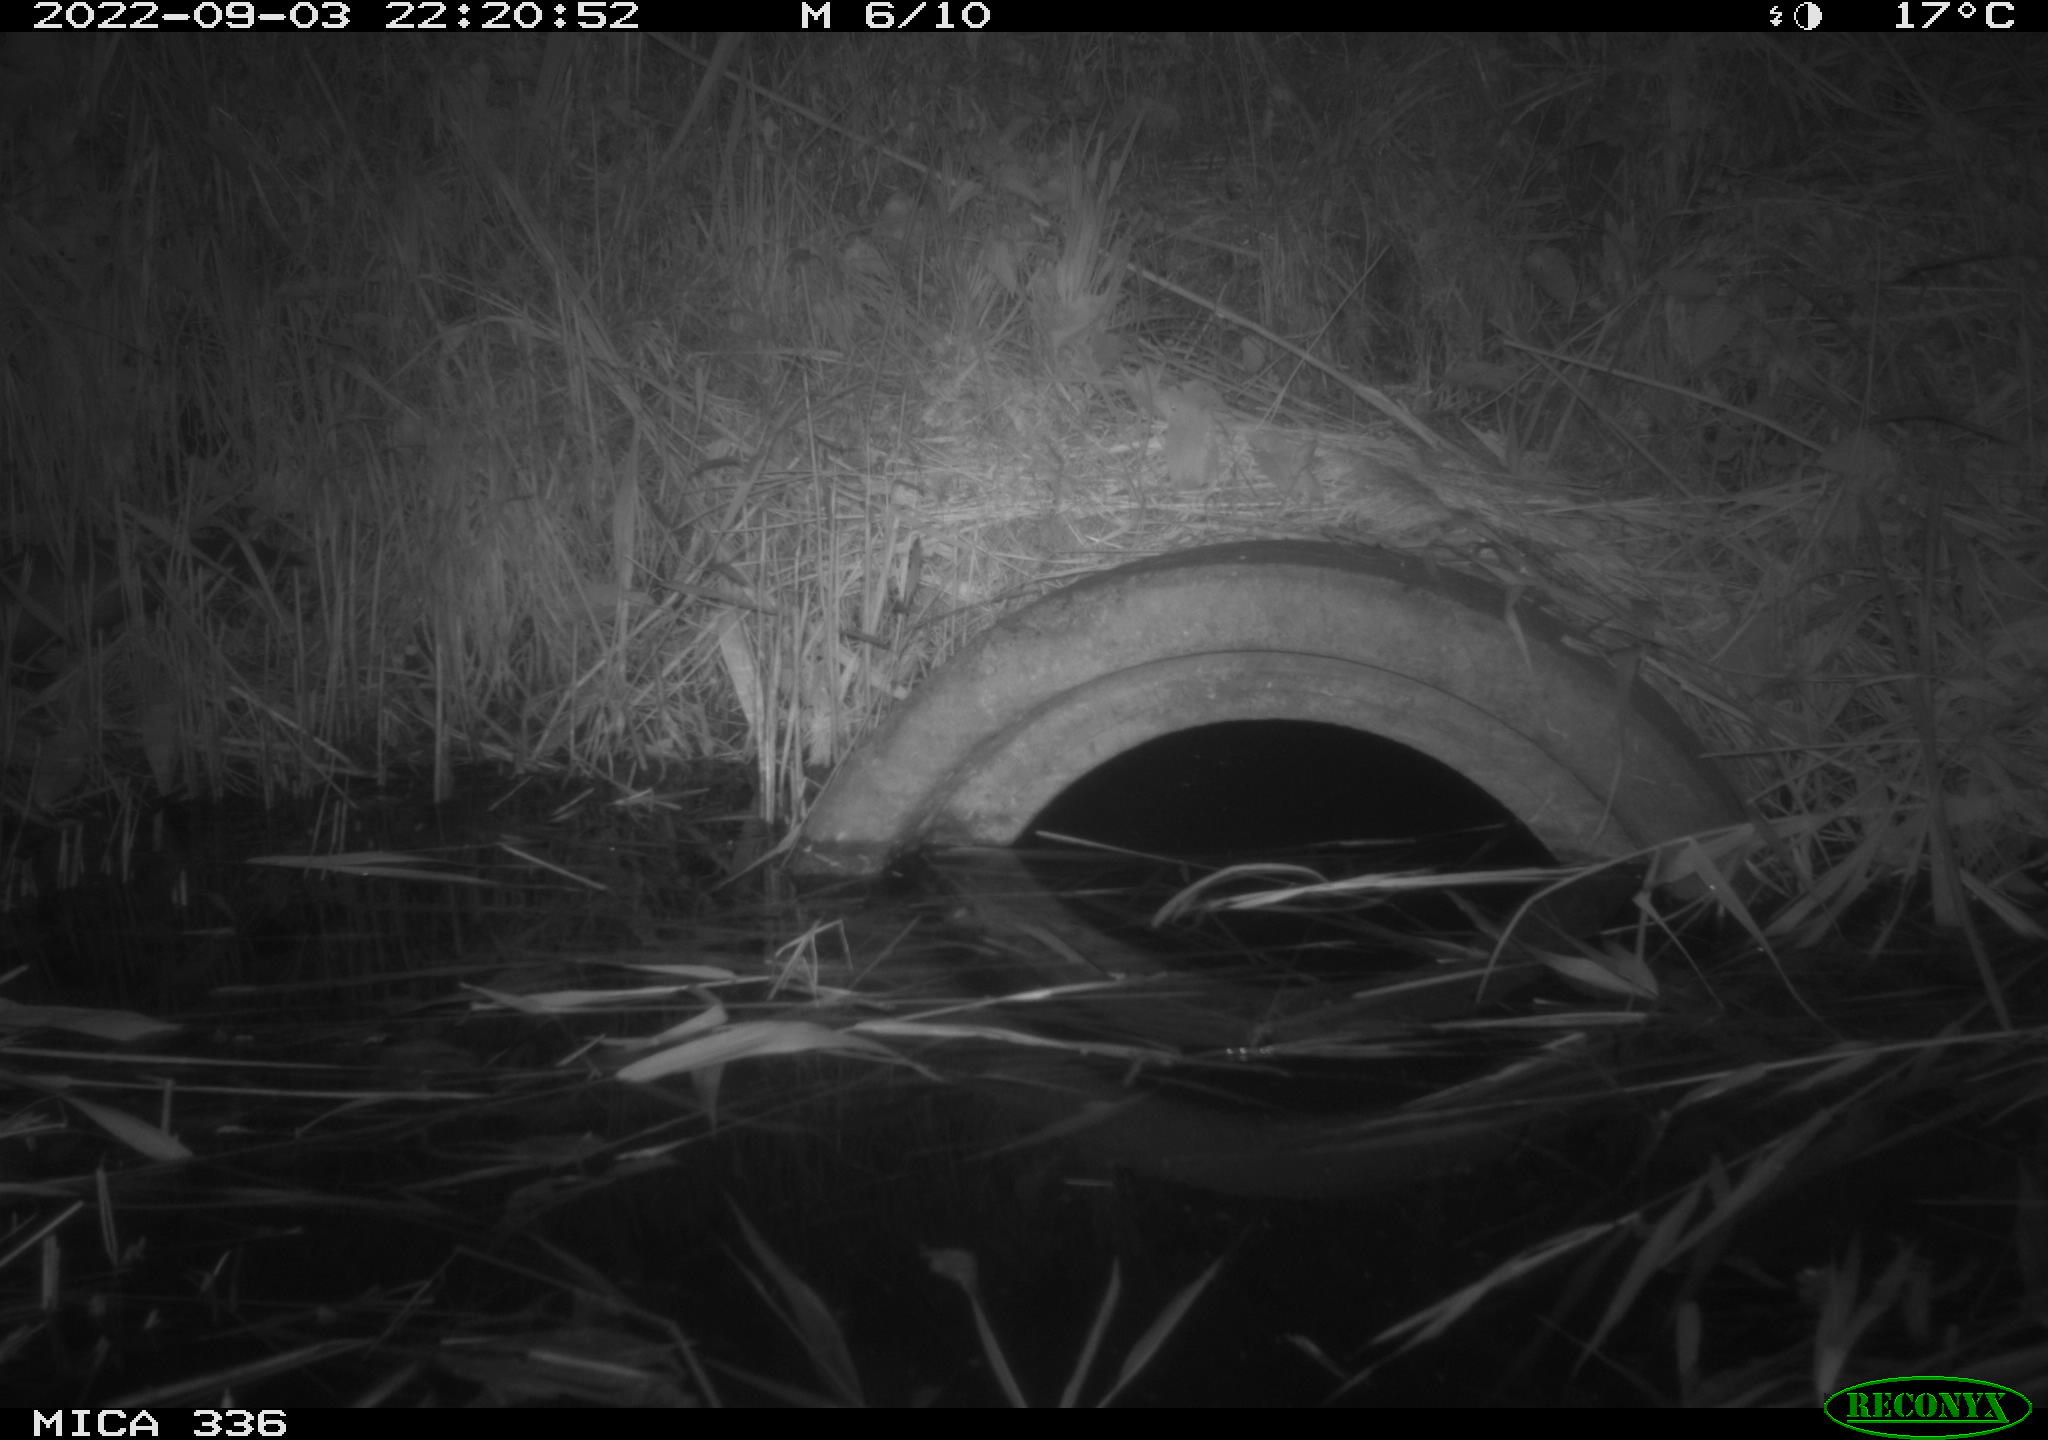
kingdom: Animalia
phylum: Chordata
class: Mammalia
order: Carnivora
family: Mustelidae
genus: Mustela
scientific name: Mustela putorius
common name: European polecat
